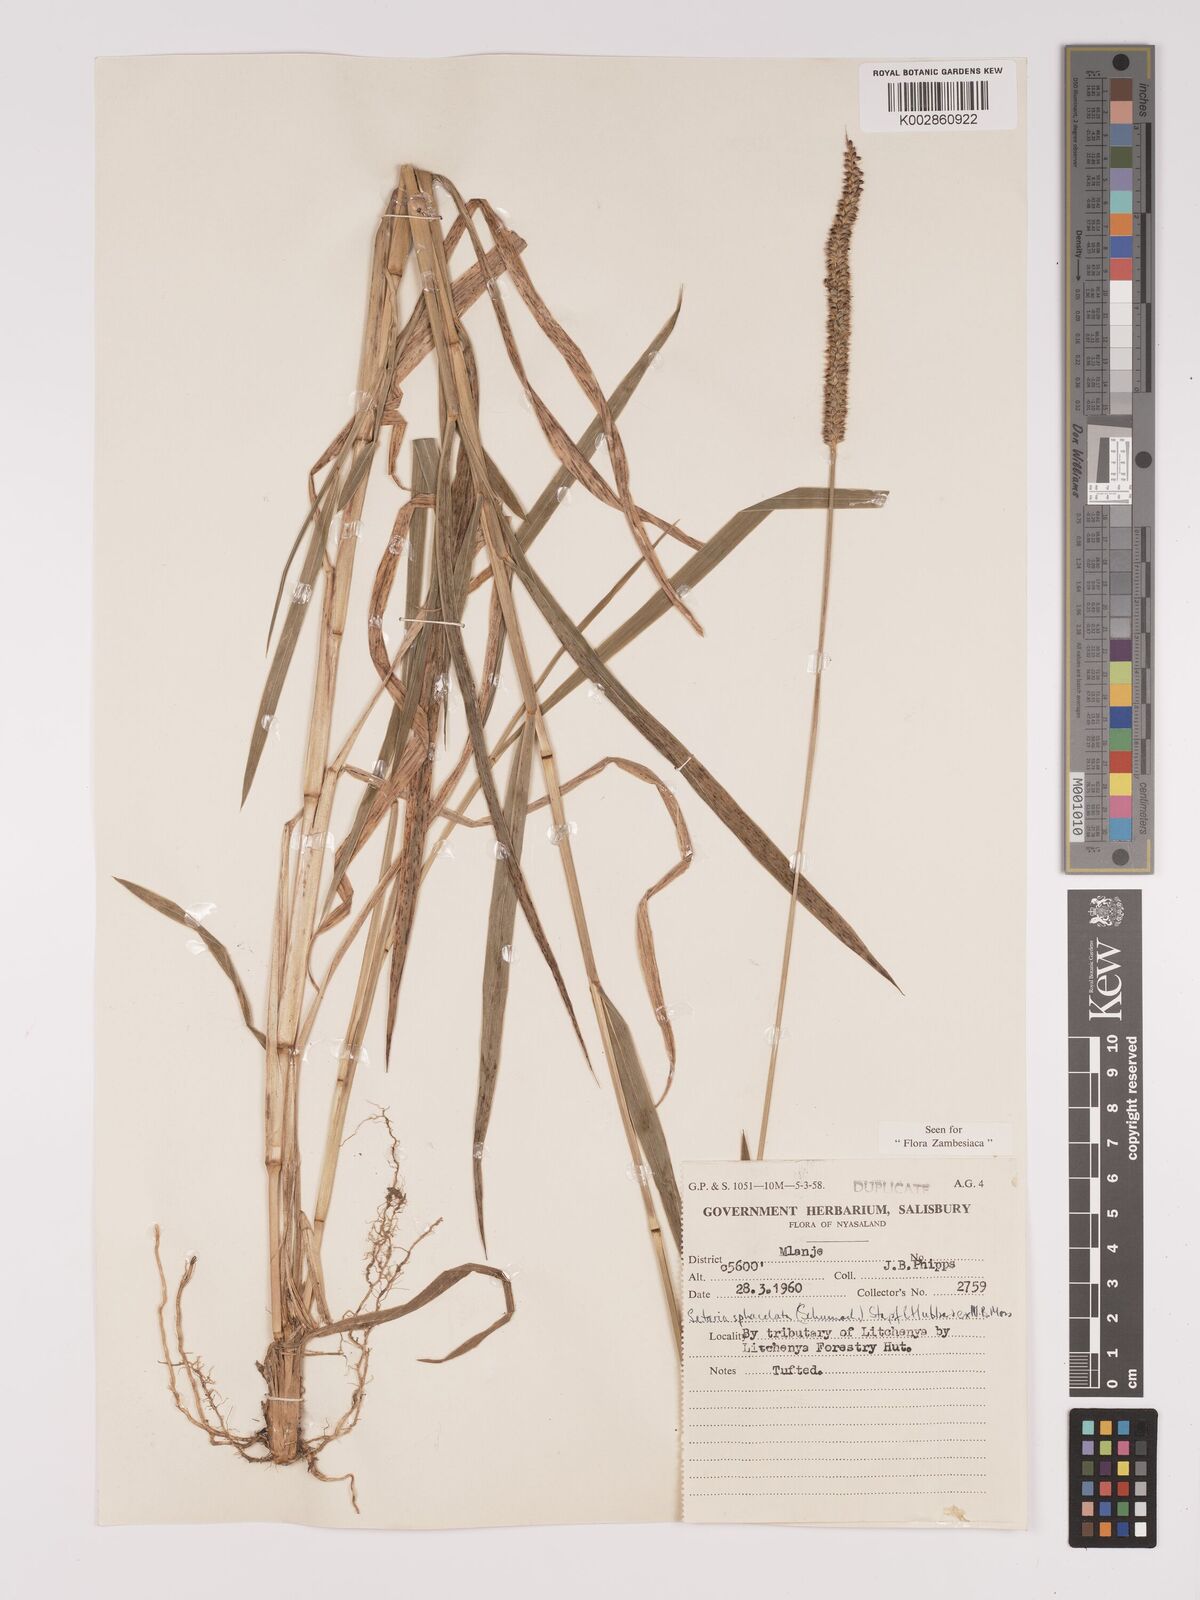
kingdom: Plantae
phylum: Tracheophyta
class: Liliopsida
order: Poales
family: Poaceae
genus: Setaria
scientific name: Setaria sphacelata
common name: African bristlegrass
